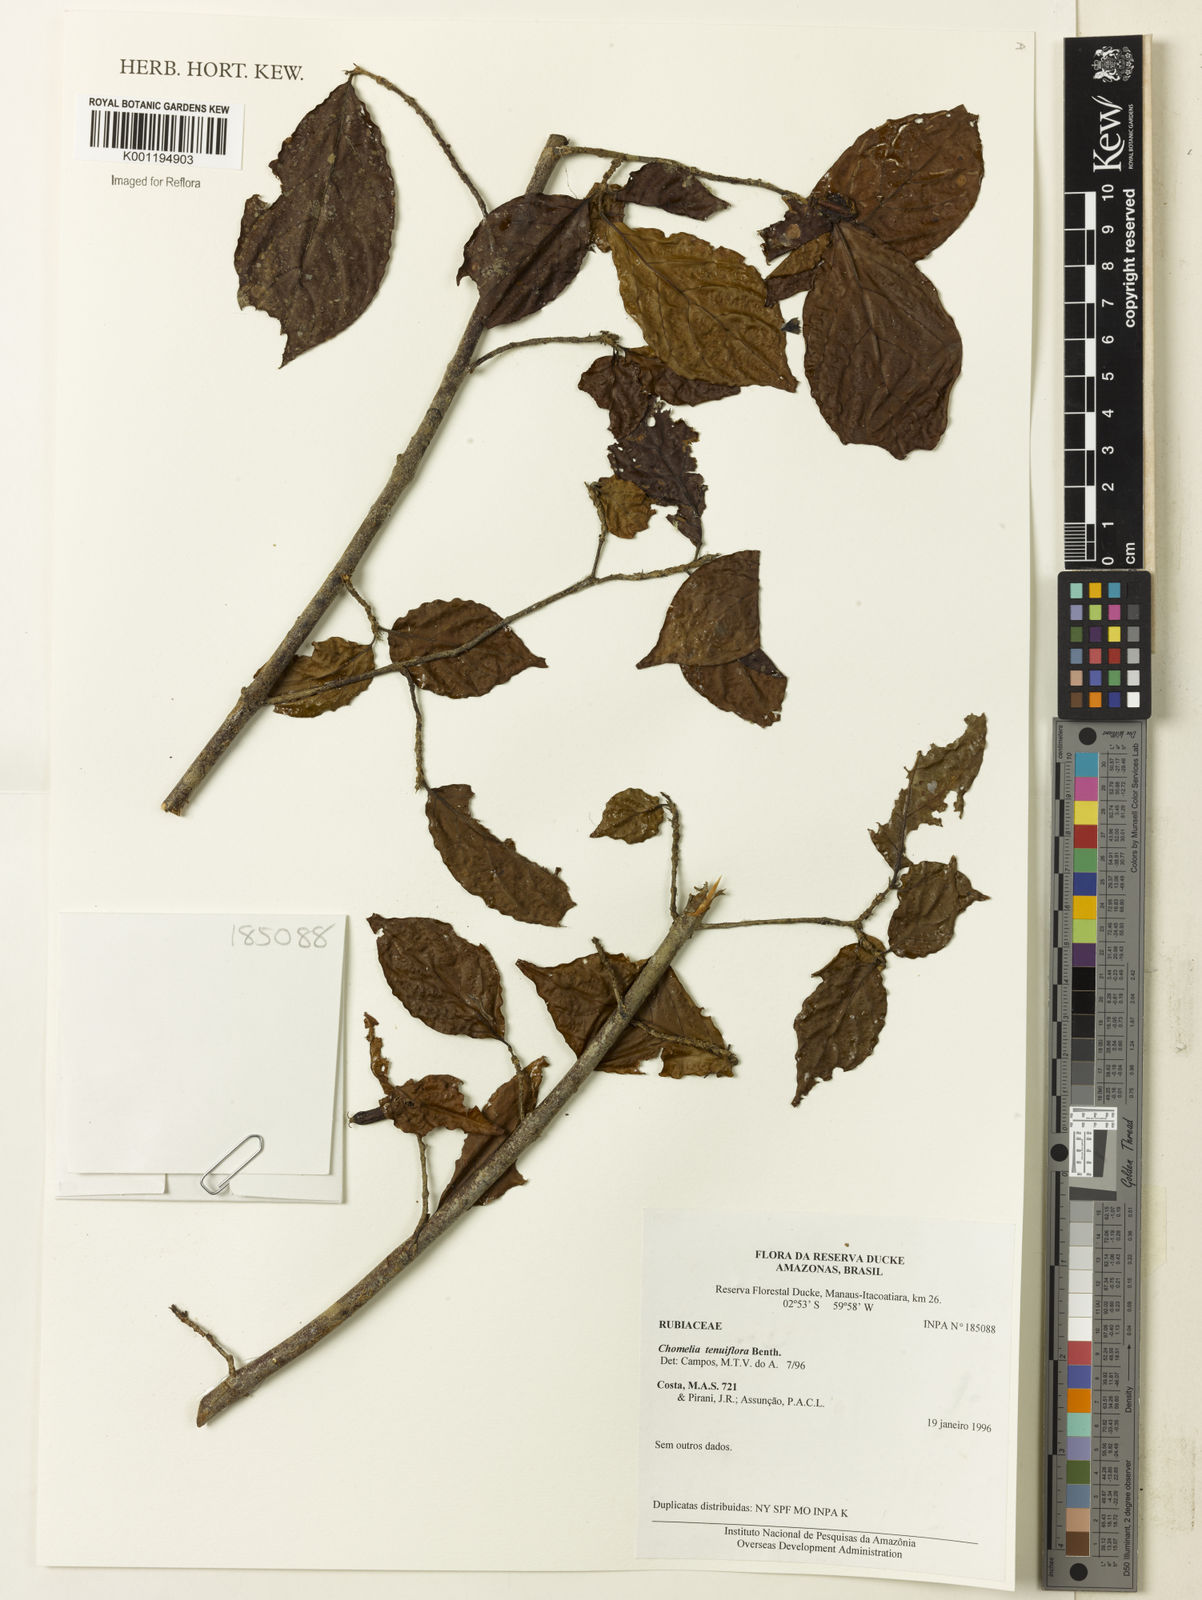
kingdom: Plantae
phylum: Tracheophyta
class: Magnoliopsida
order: Gentianales
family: Rubiaceae
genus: Chomelia
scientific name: Chomelia tenuiflora
